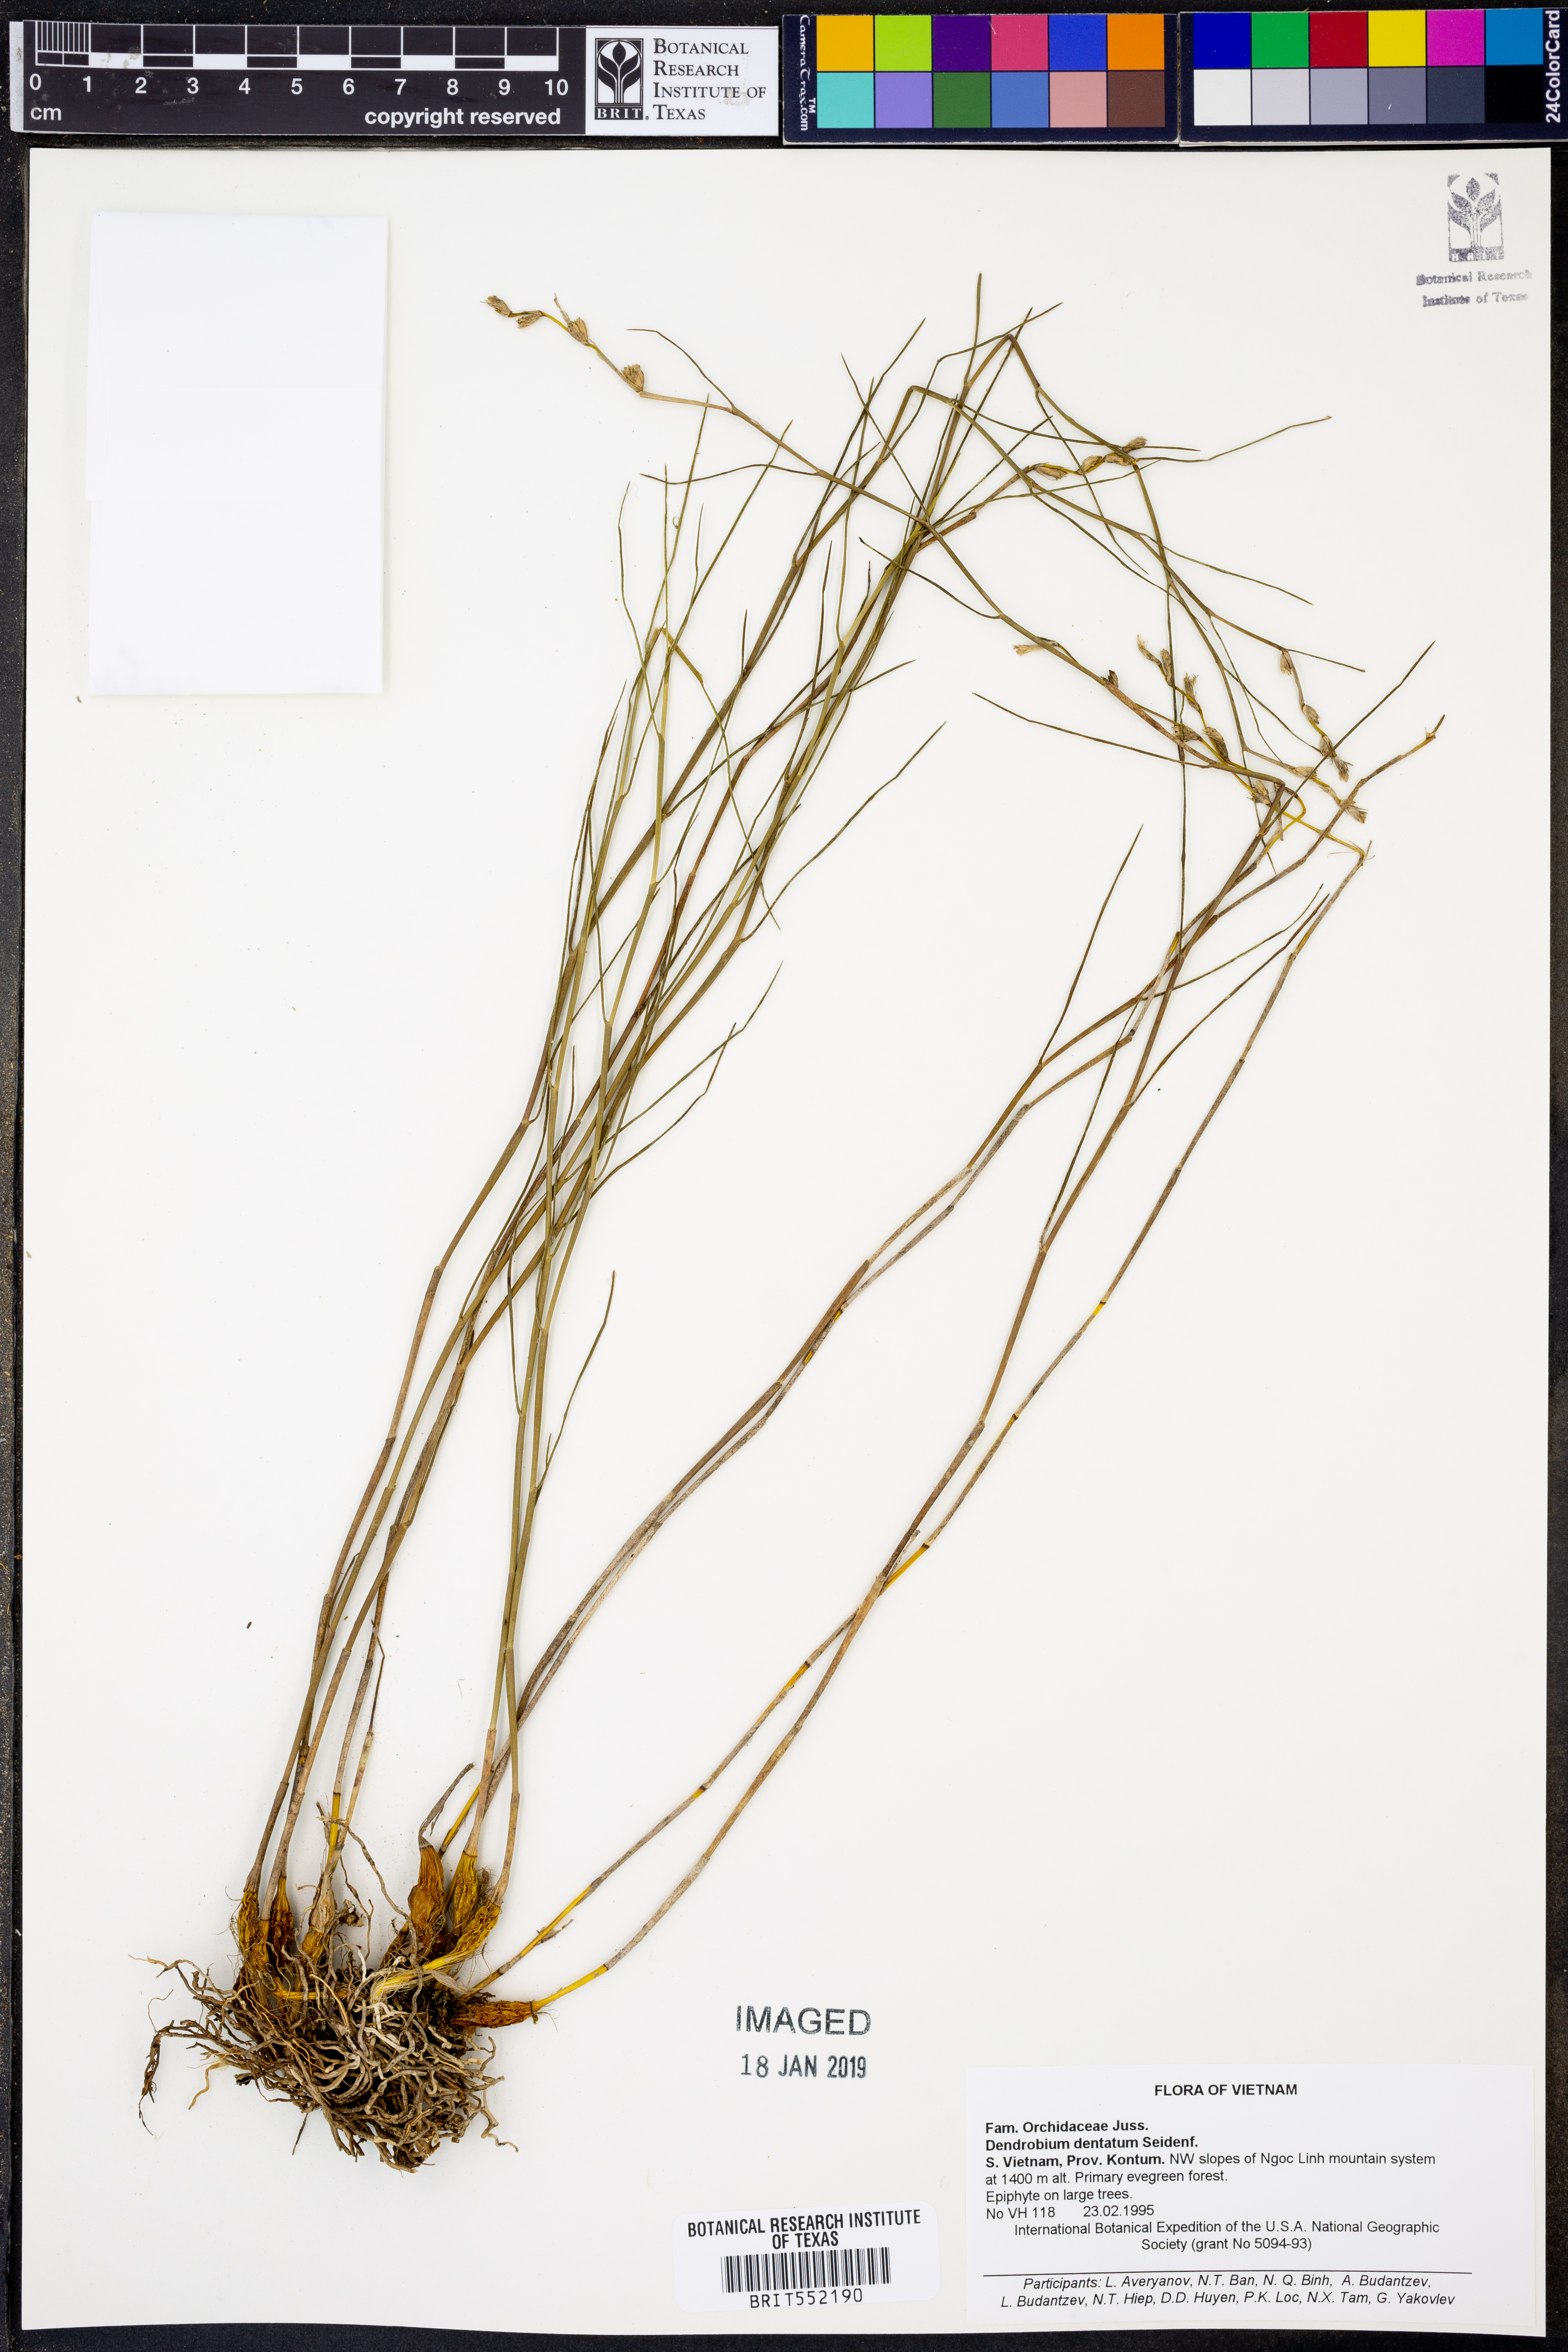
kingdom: Plantae
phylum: Tracheophyta
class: Liliopsida
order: Asparagales
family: Orchidaceae
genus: Dendrobium
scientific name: Dendrobium dentatum
